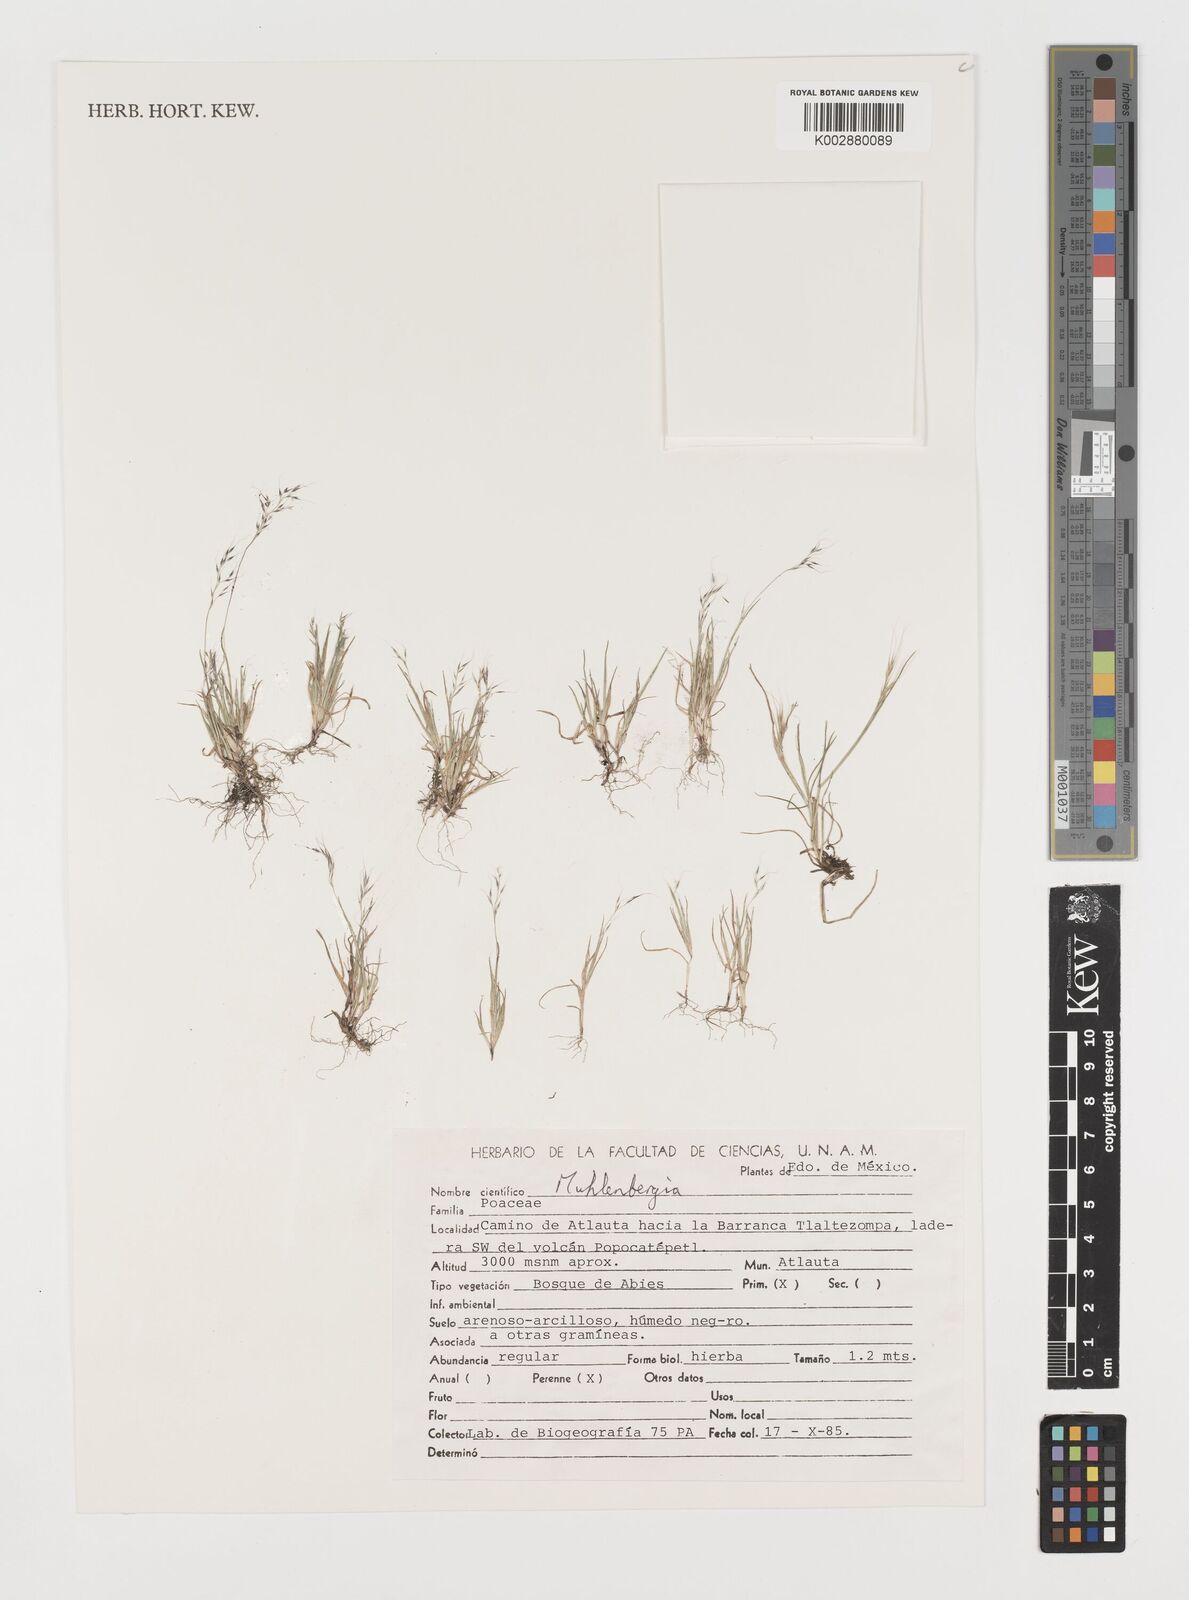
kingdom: Plantae
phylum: Tracheophyta
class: Liliopsida
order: Poales
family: Poaceae
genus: Muhlenbergia
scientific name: Muhlenbergia
